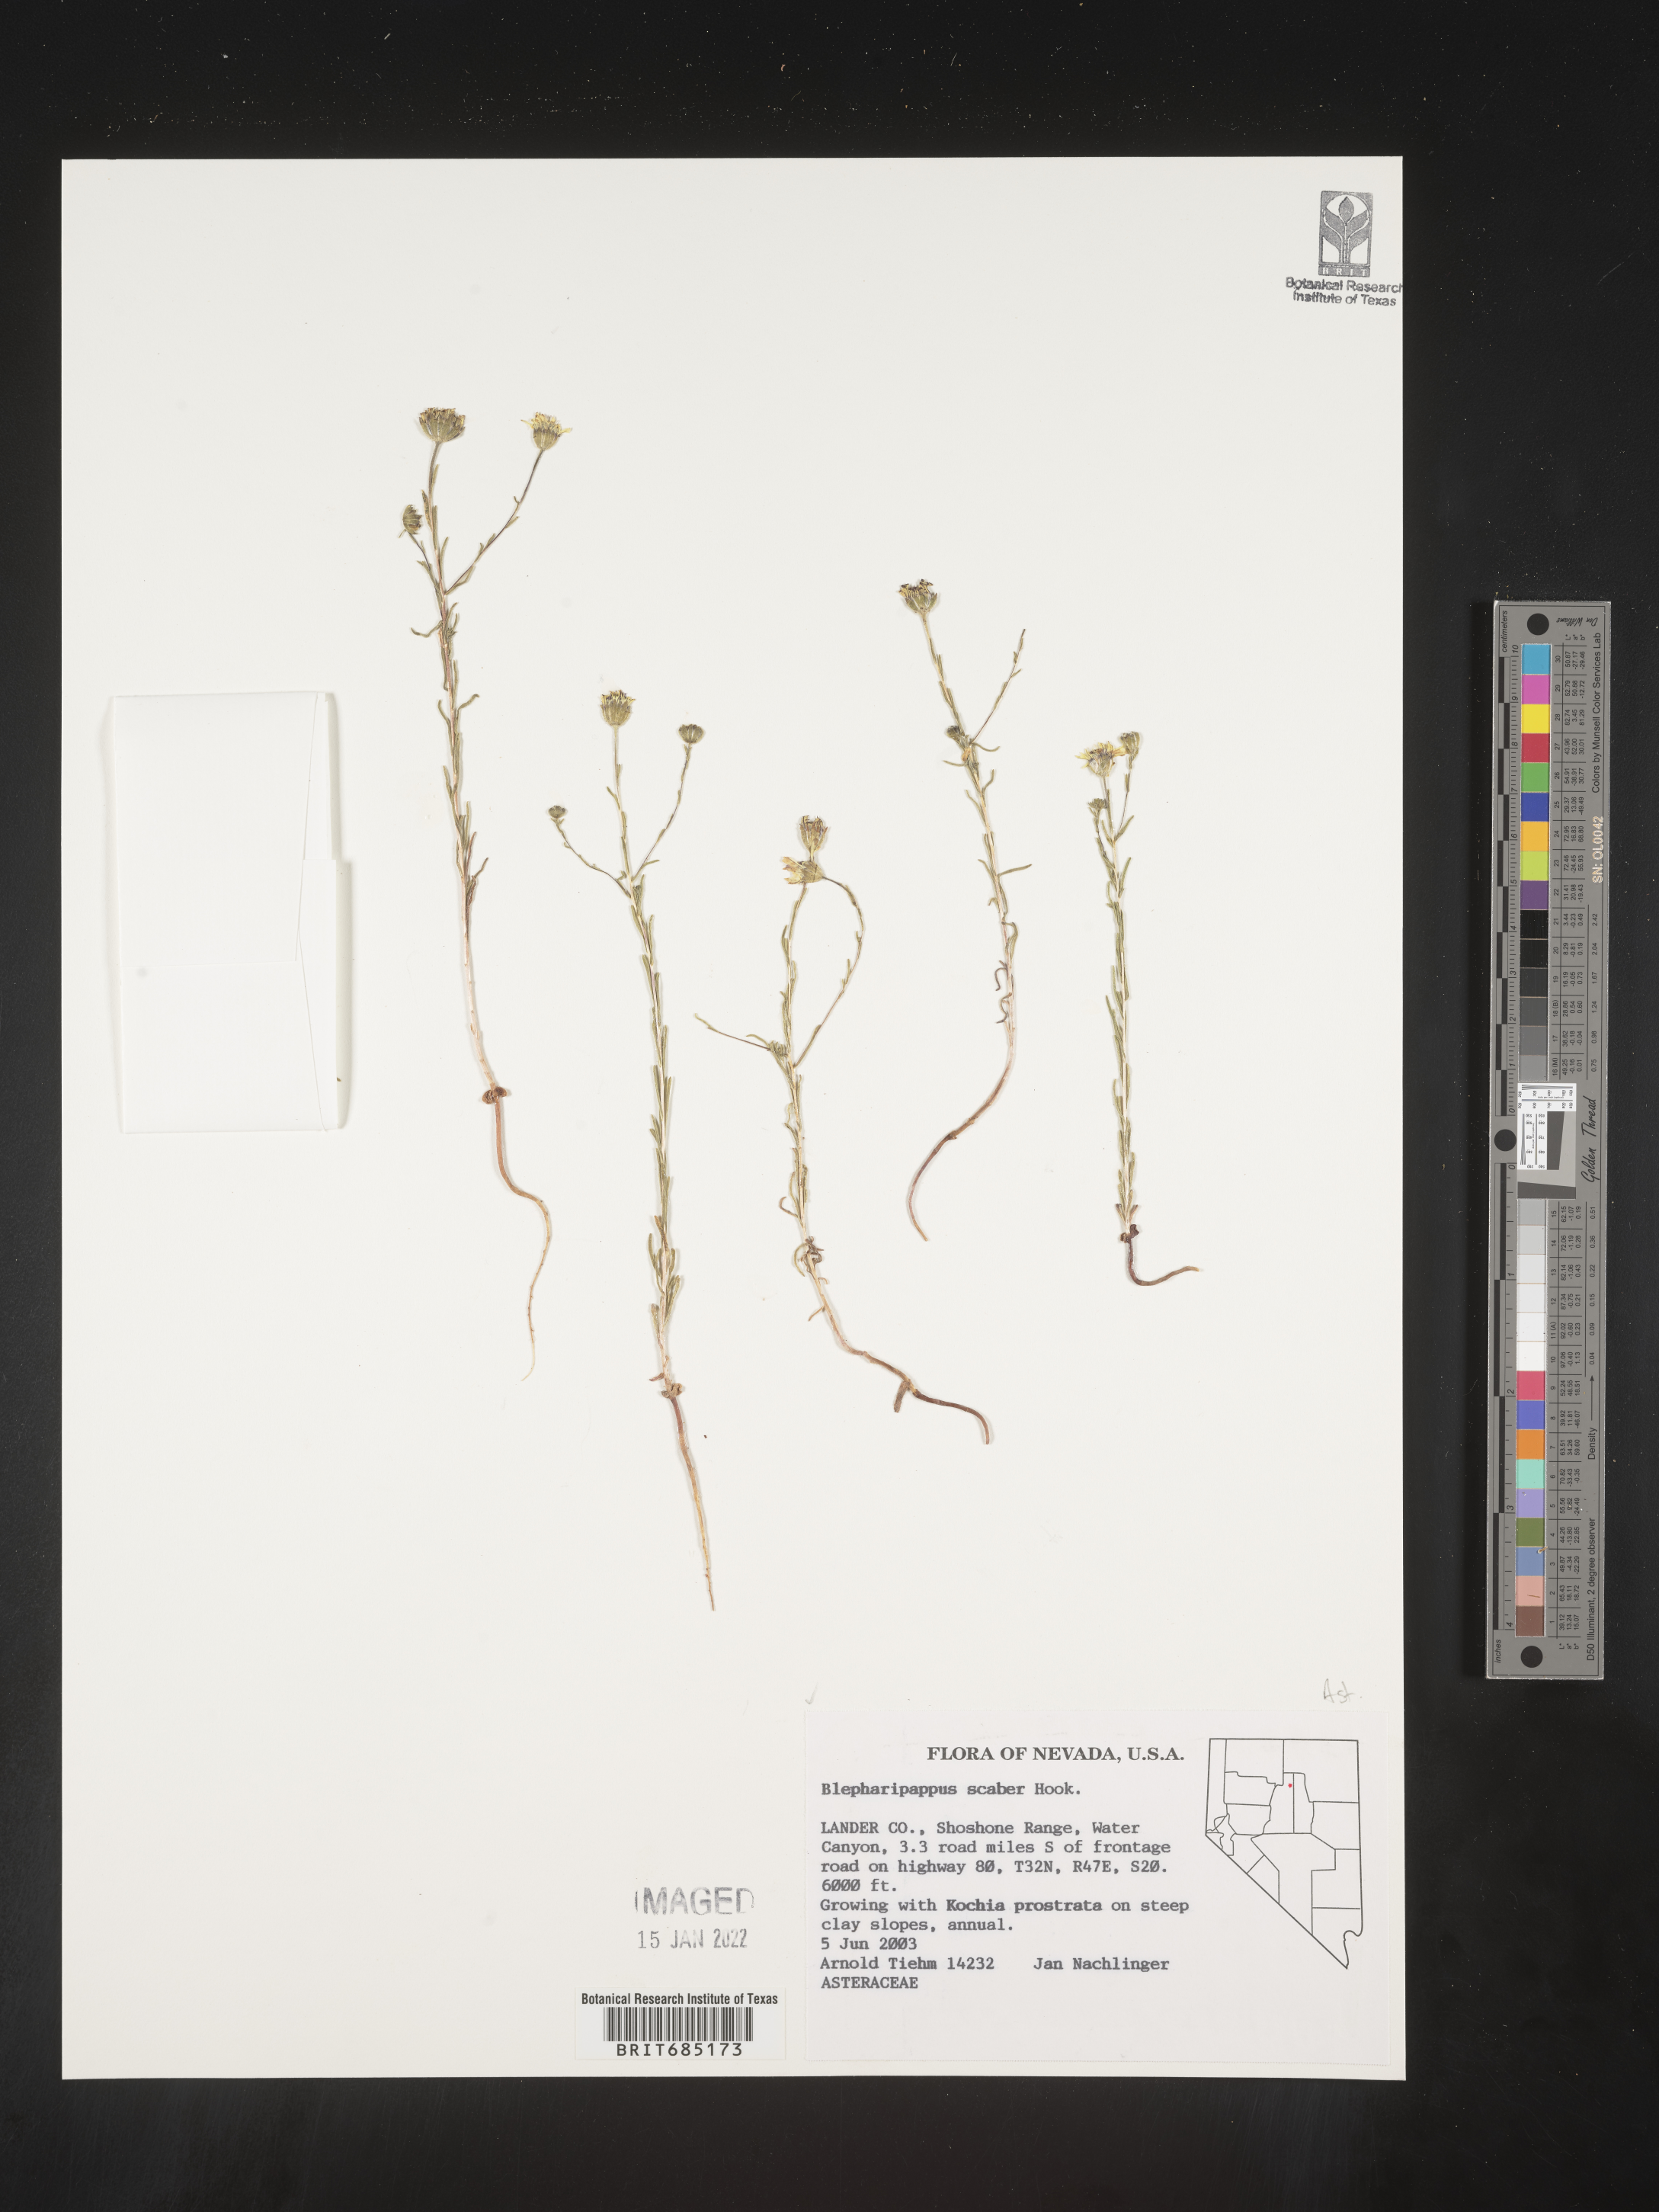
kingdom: Plantae
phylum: Tracheophyta
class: Magnoliopsida
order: Asterales
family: Asteraceae
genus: Blepharipappus
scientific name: Blepharipappus
